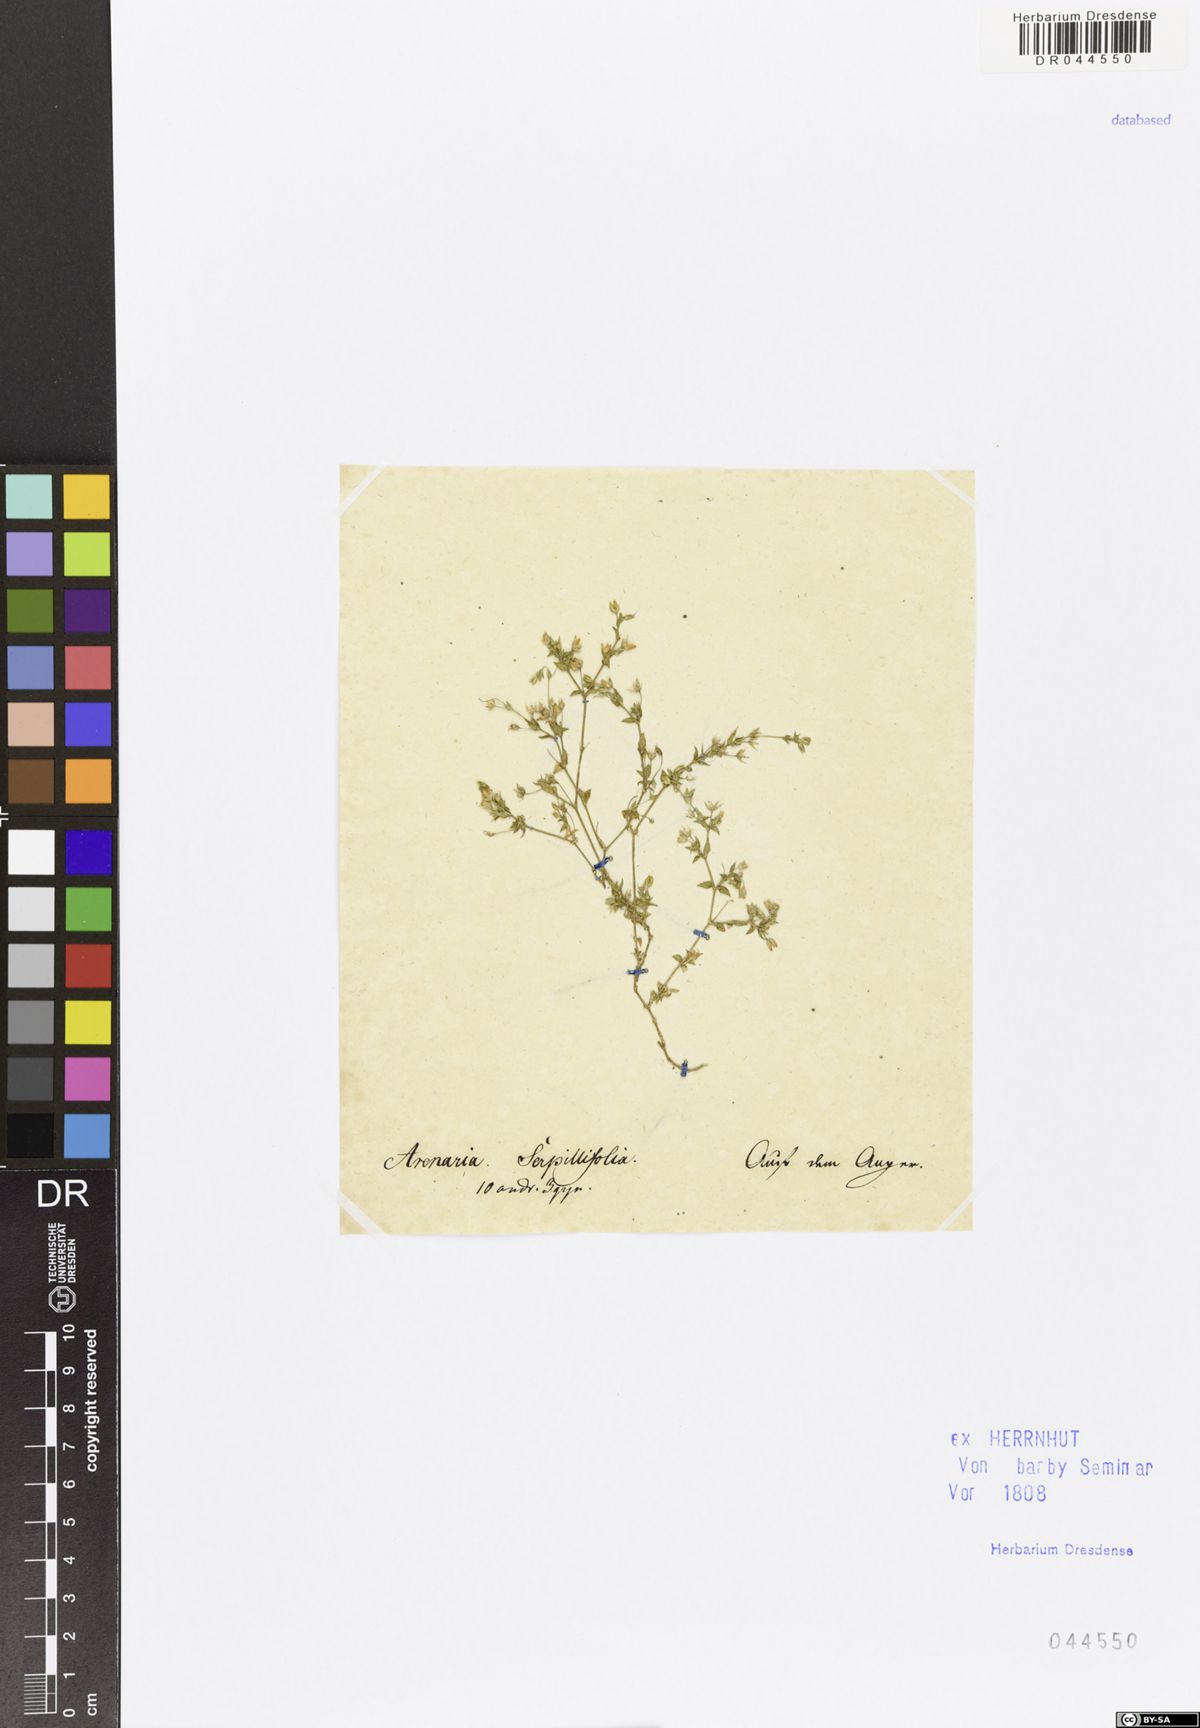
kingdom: Plantae
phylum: Tracheophyta
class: Magnoliopsida
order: Caryophyllales
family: Caryophyllaceae
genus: Arenaria
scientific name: Arenaria serpyllifolia
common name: Thyme-leaved sandwort
